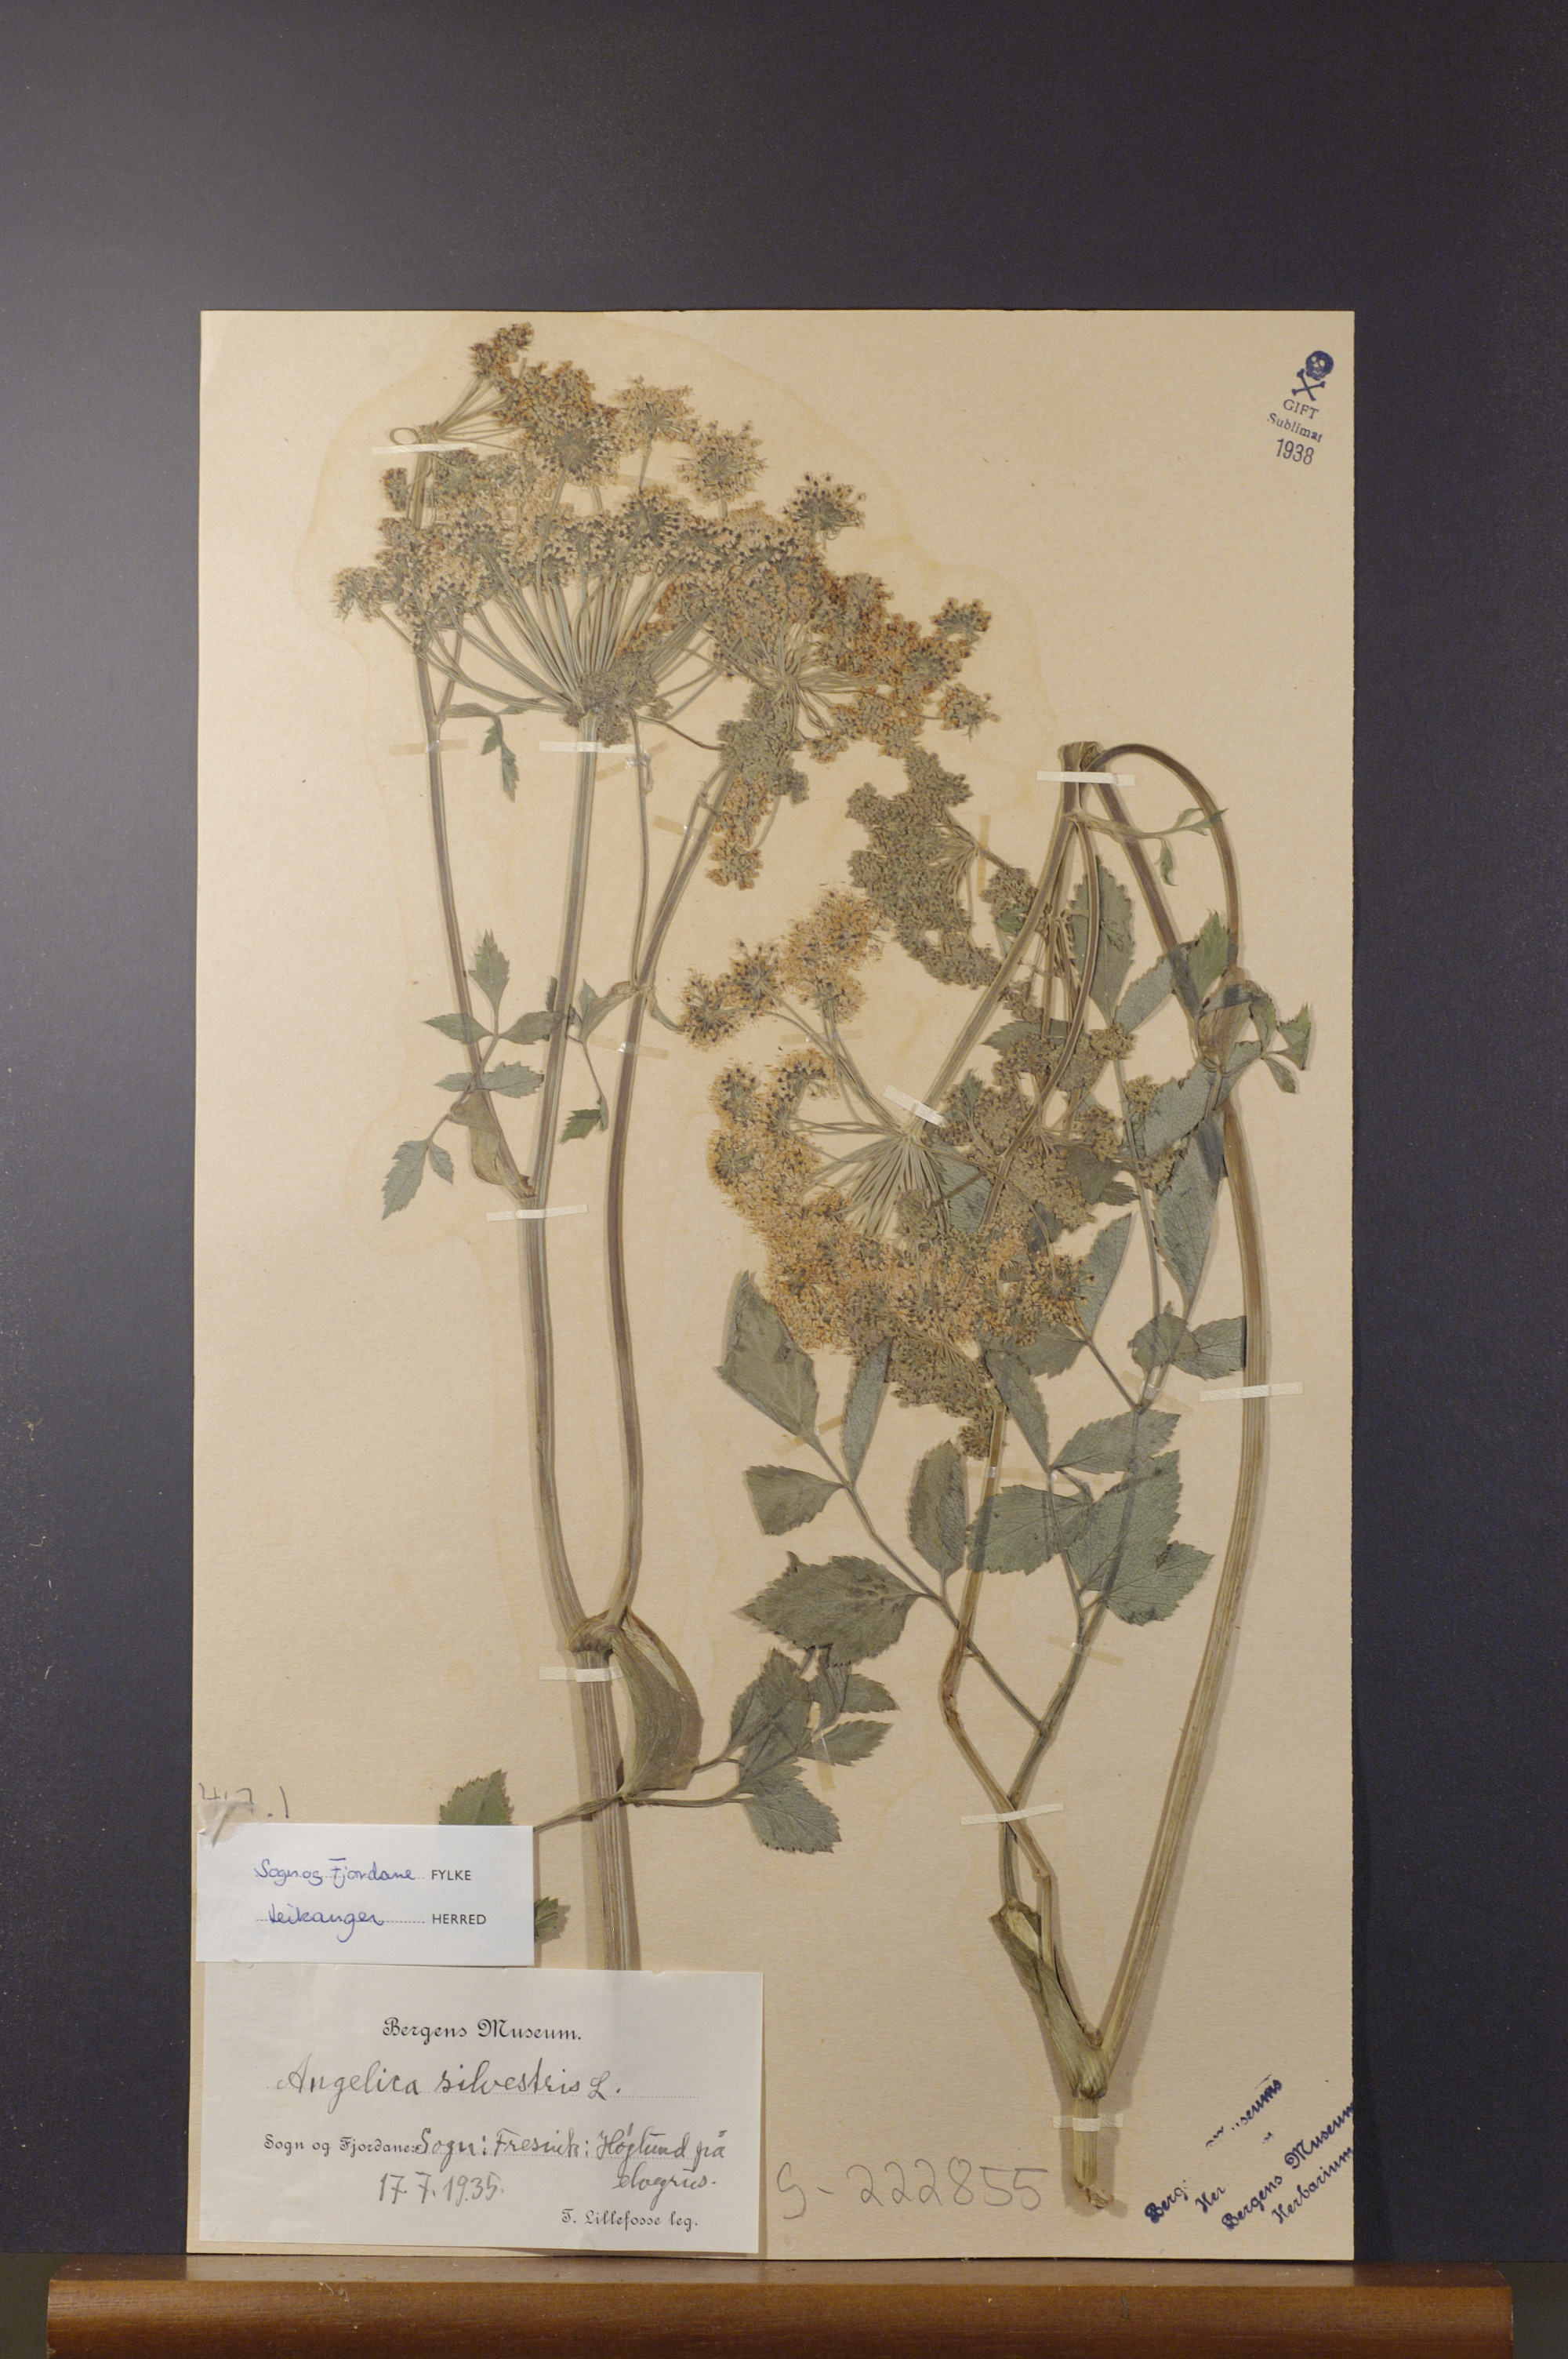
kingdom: Plantae
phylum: Tracheophyta
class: Magnoliopsida
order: Apiales
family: Apiaceae
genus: Angelica
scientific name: Angelica sylvestris
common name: Wild angelica
